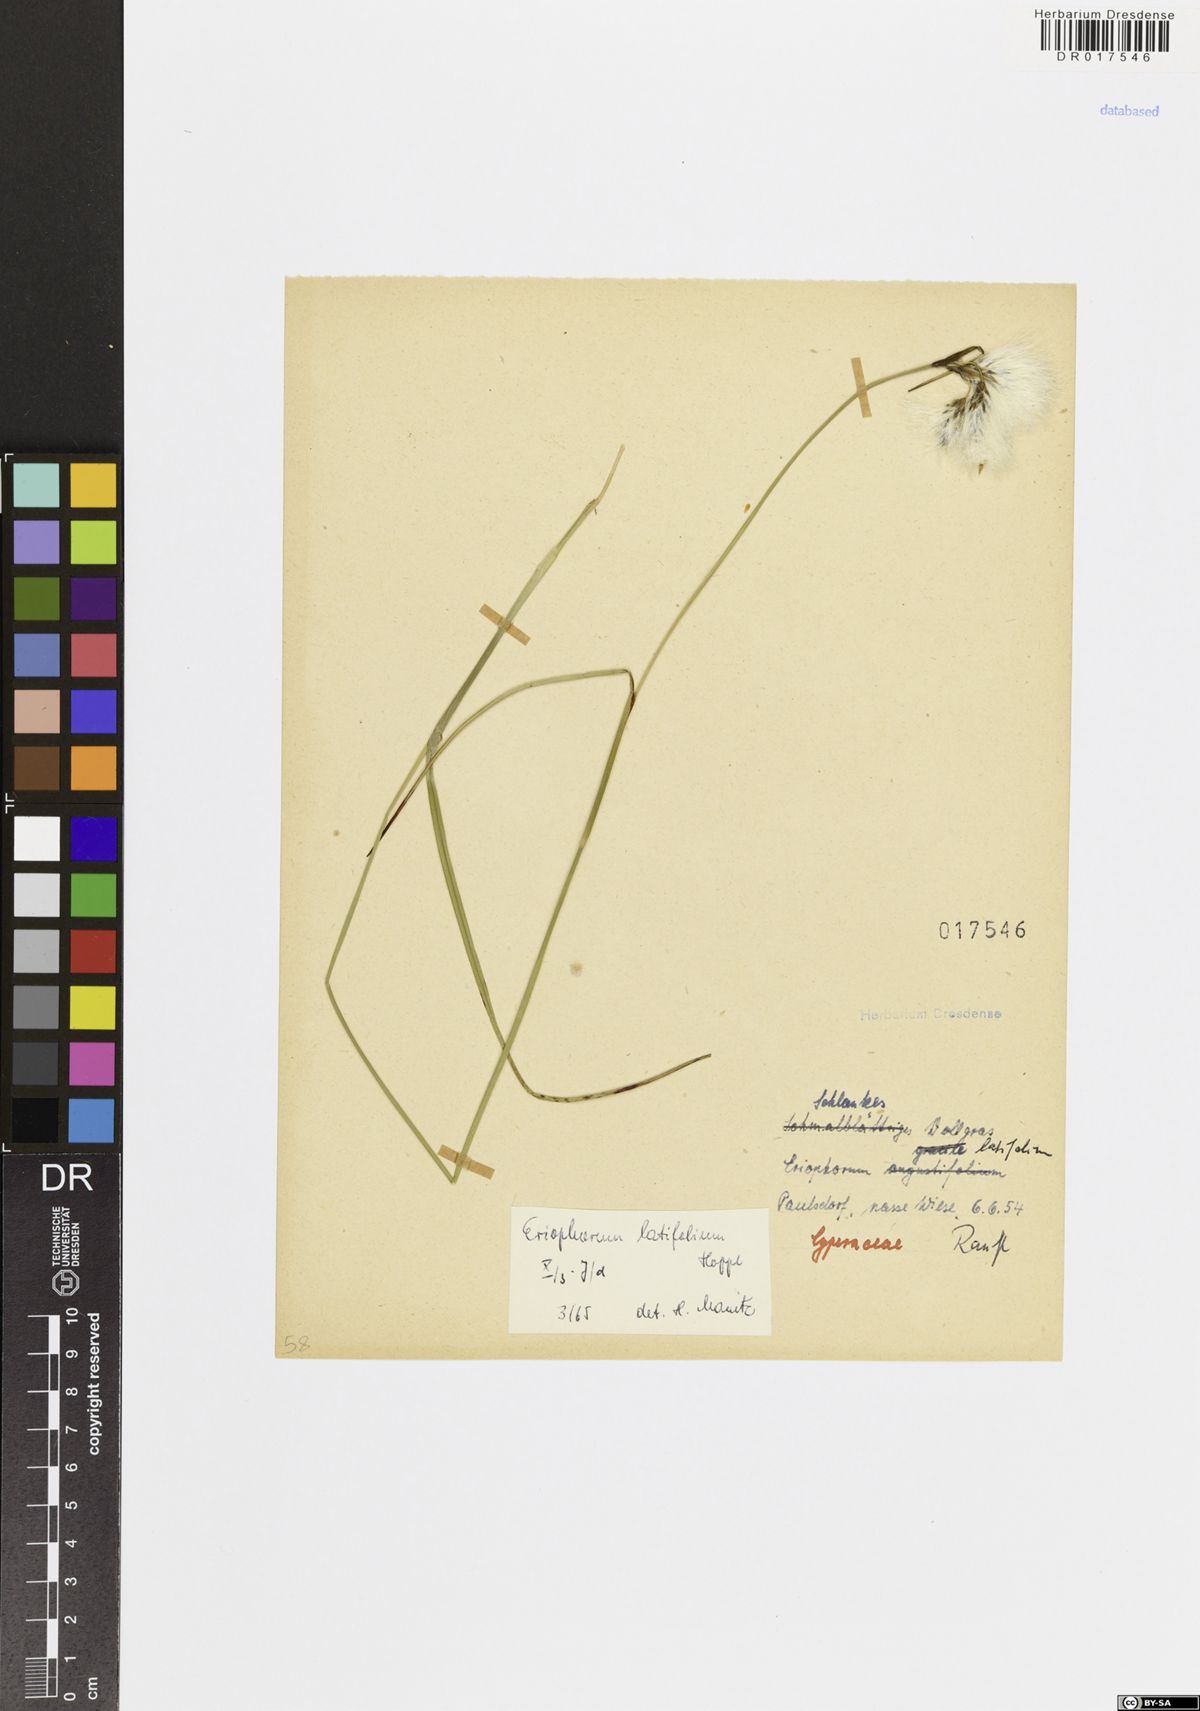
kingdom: Plantae
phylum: Tracheophyta
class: Liliopsida
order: Poales
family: Cyperaceae
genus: Eriophorum
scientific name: Eriophorum latifolium
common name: Broad-leaved cottongrass
